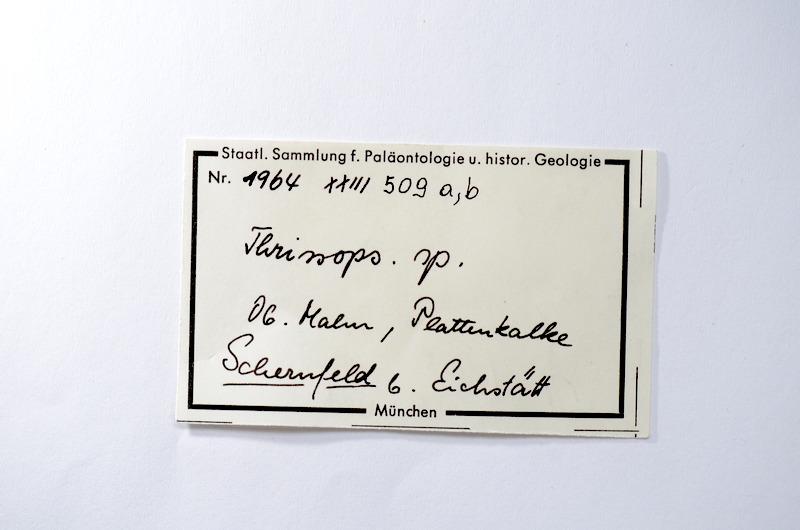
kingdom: Animalia
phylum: Chordata
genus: Thrissops
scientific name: Thrissops
